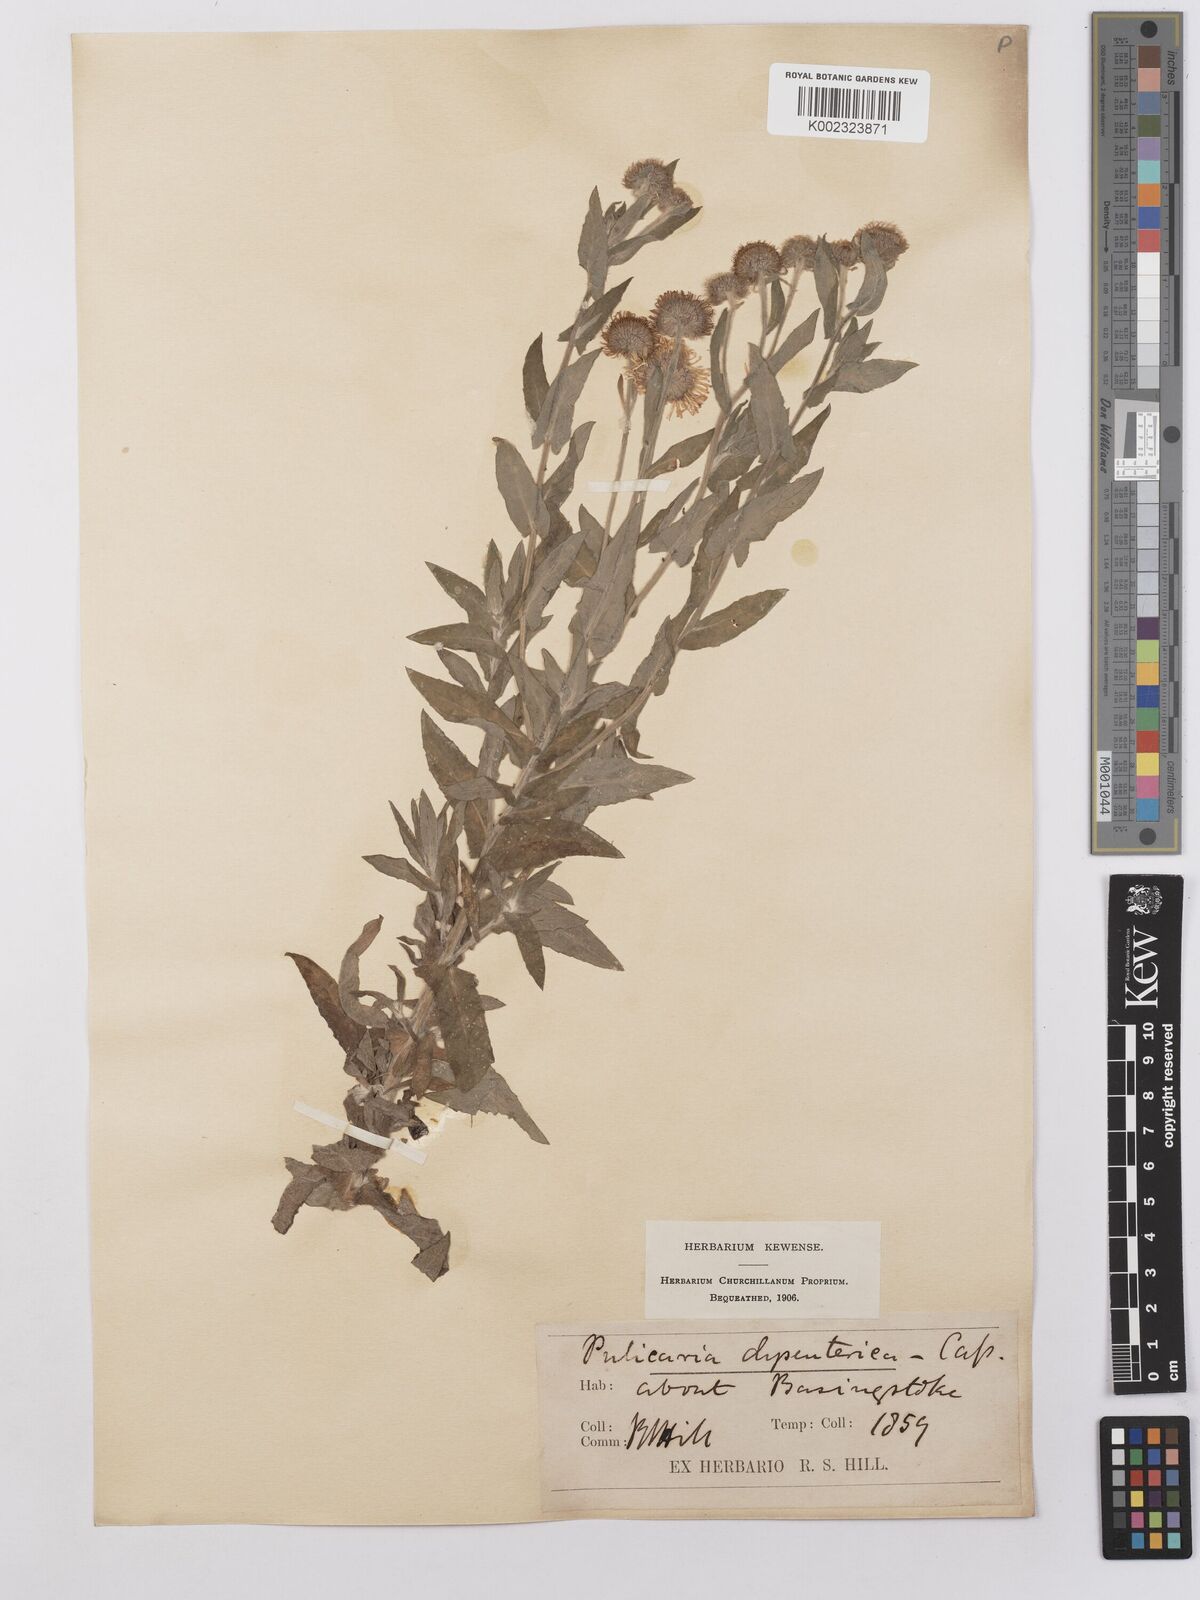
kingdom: Plantae
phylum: Tracheophyta
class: Magnoliopsida
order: Asterales
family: Asteraceae
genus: Pulicaria
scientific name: Pulicaria dysenterica
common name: Common fleabane
